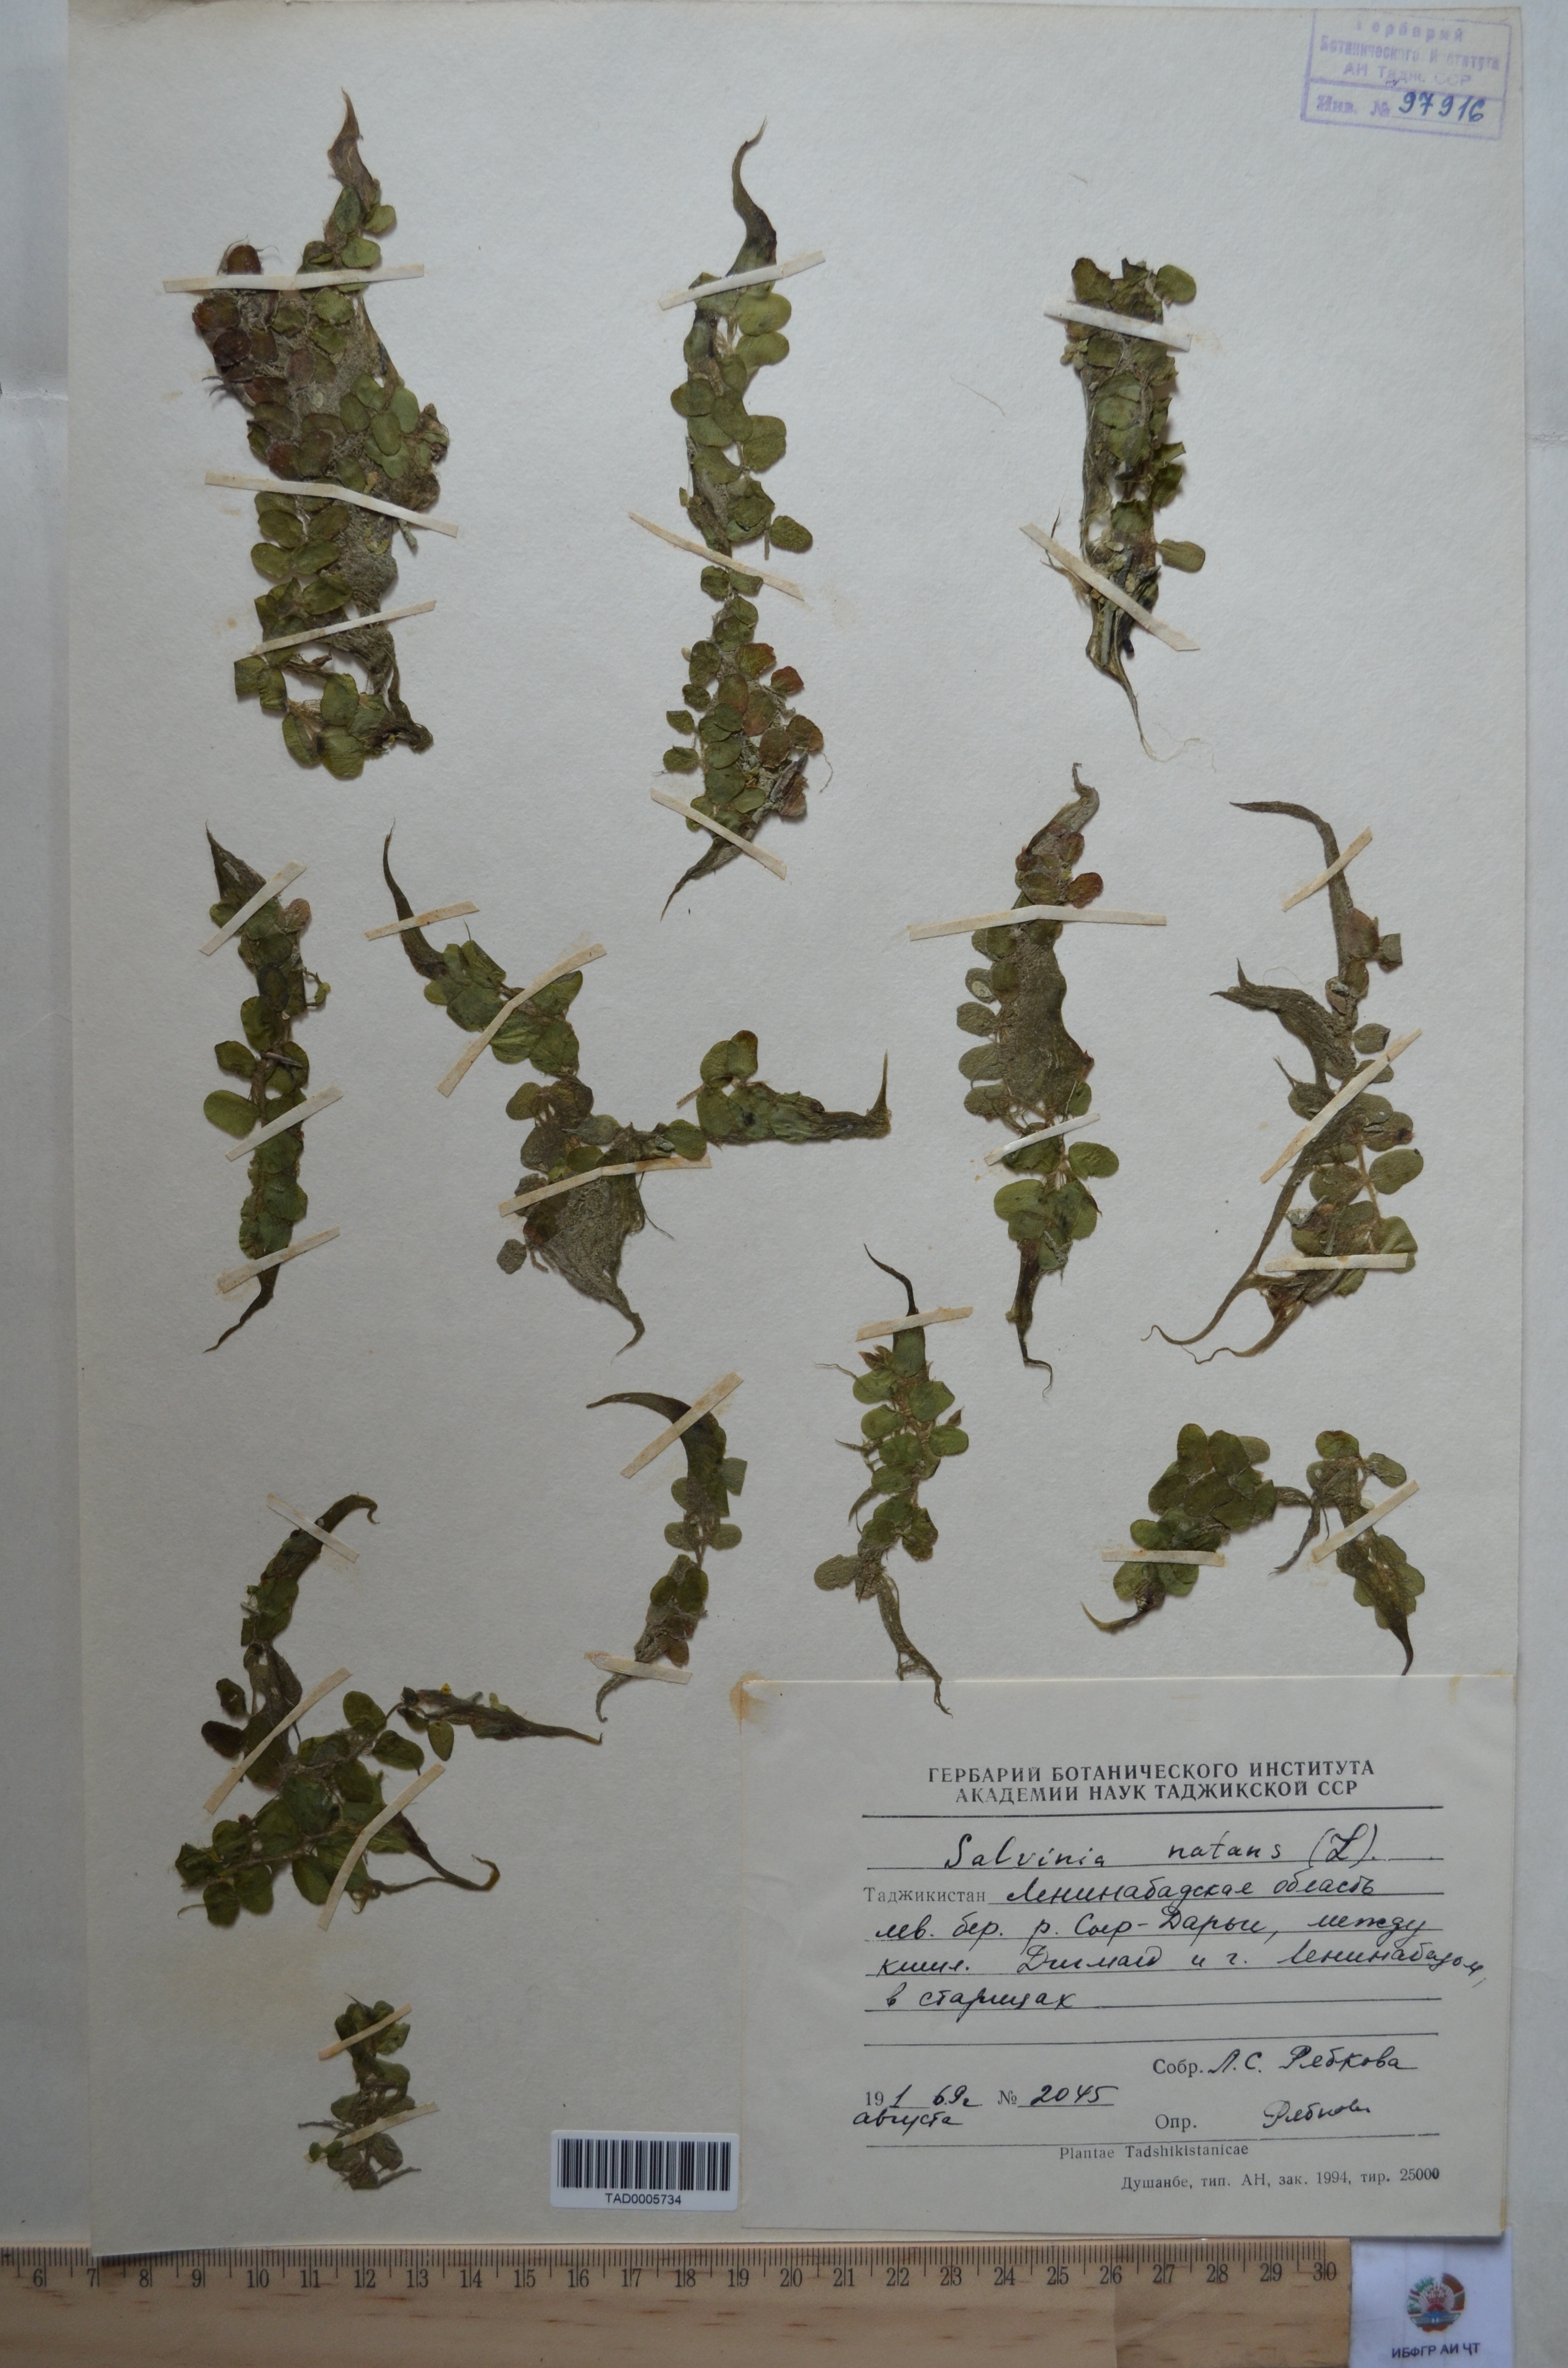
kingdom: Plantae
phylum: Tracheophyta
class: Polypodiopsida
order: Salviniales
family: Salviniaceae
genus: Salvinia
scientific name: Salvinia natans
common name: Floating fern
